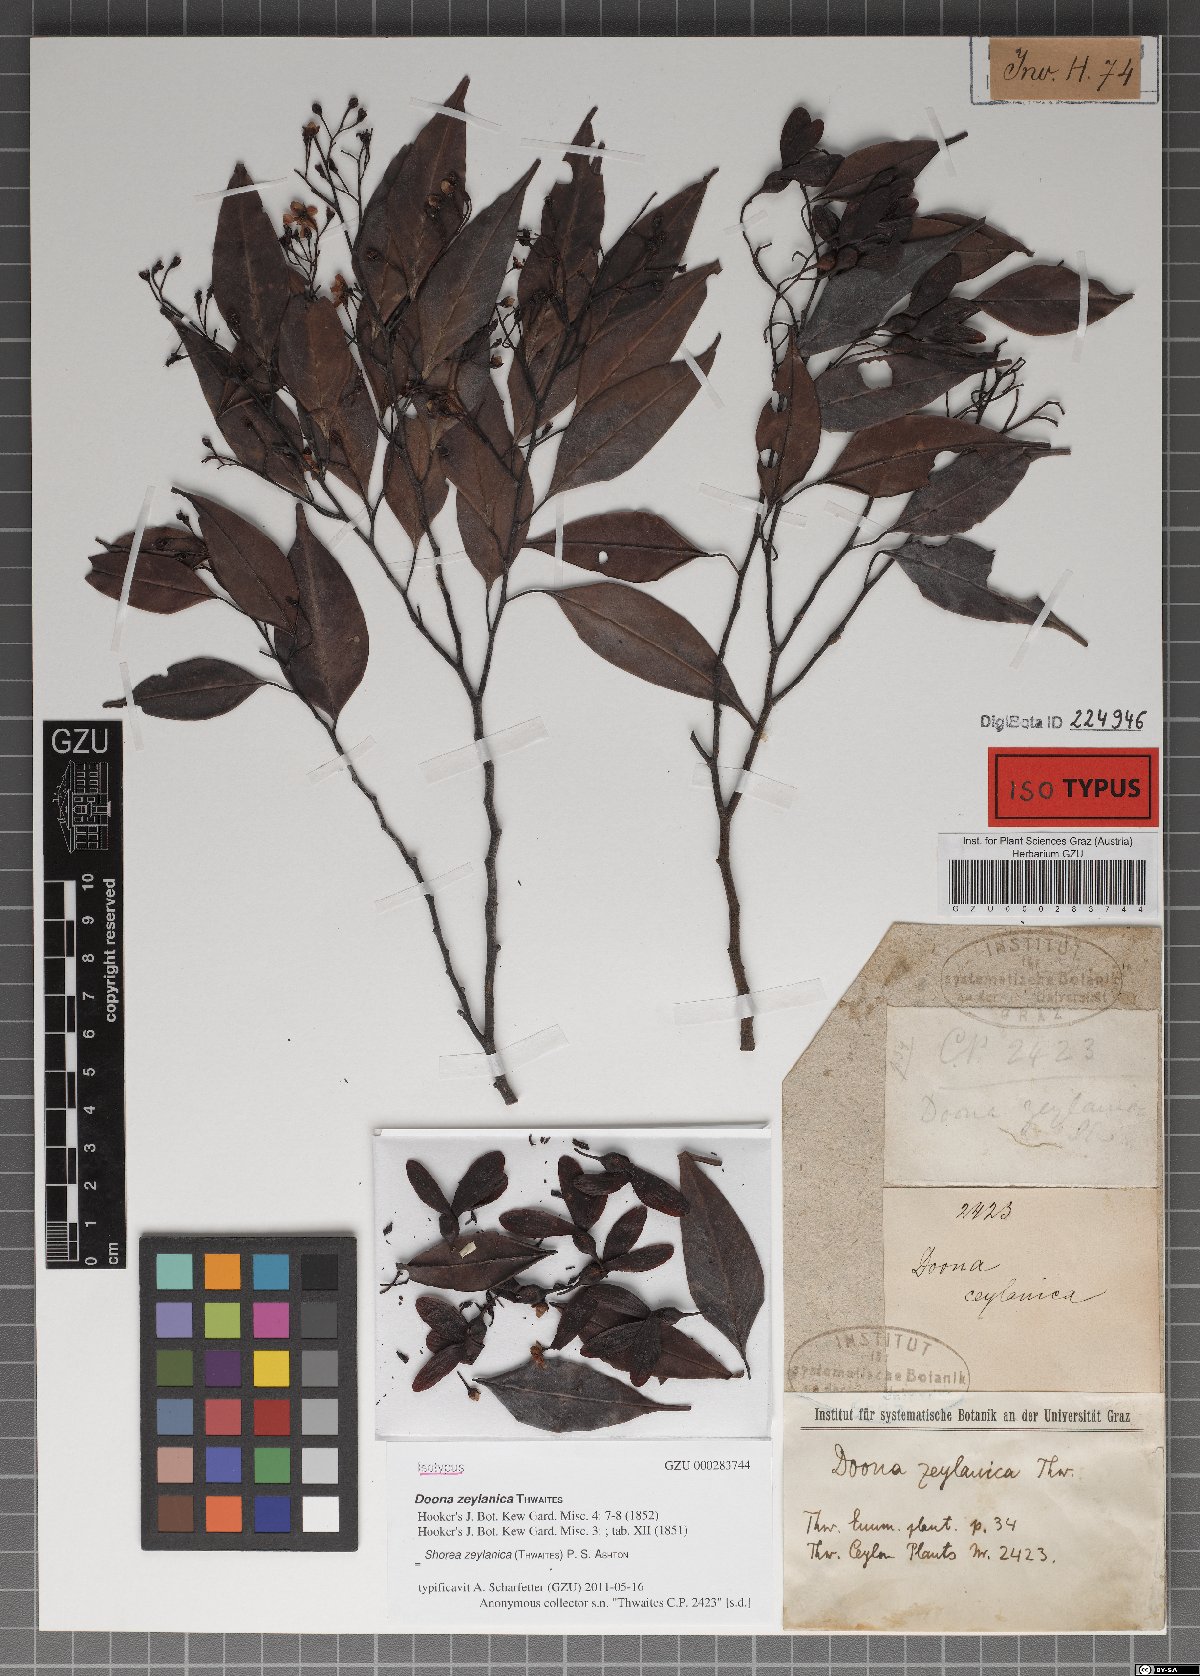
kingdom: Plantae
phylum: Tracheophyta
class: Magnoliopsida
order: Malvales
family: Dipterocarpaceae
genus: Doona
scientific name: Doona zeylanica
